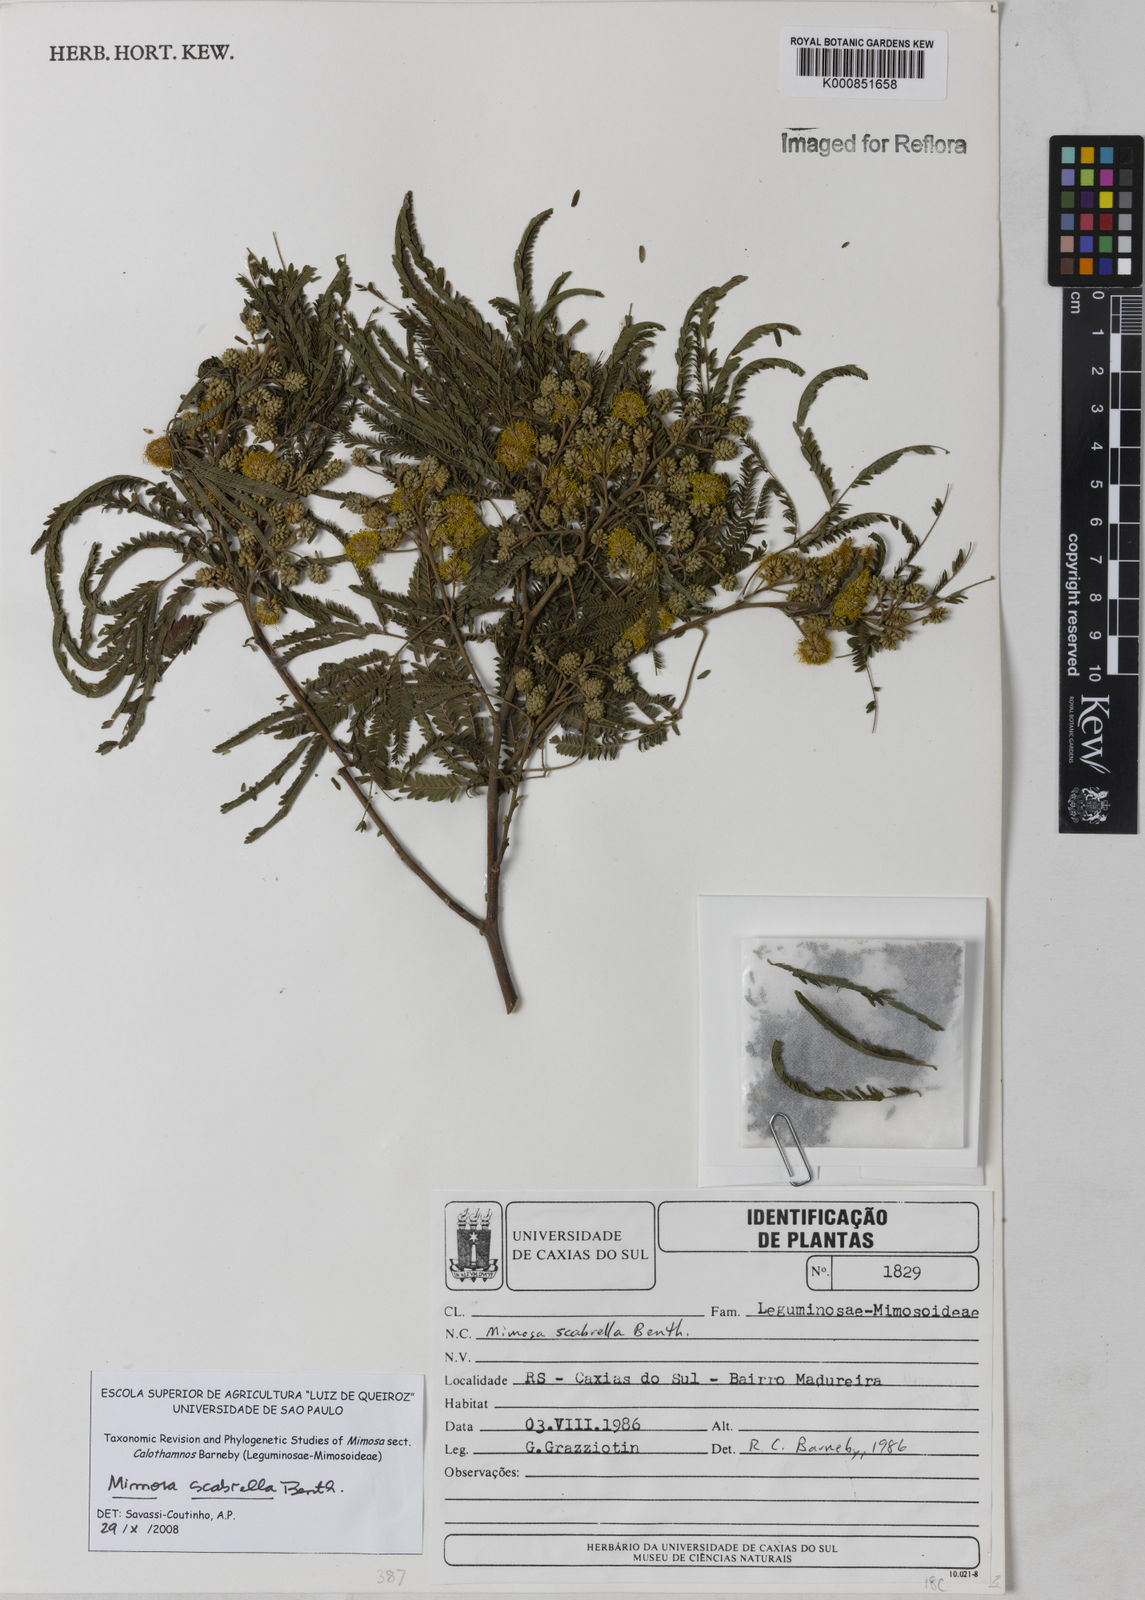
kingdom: Plantae
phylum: Tracheophyta
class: Magnoliopsida
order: Fabales
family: Fabaceae
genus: Mimosa
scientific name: Mimosa scabrella
